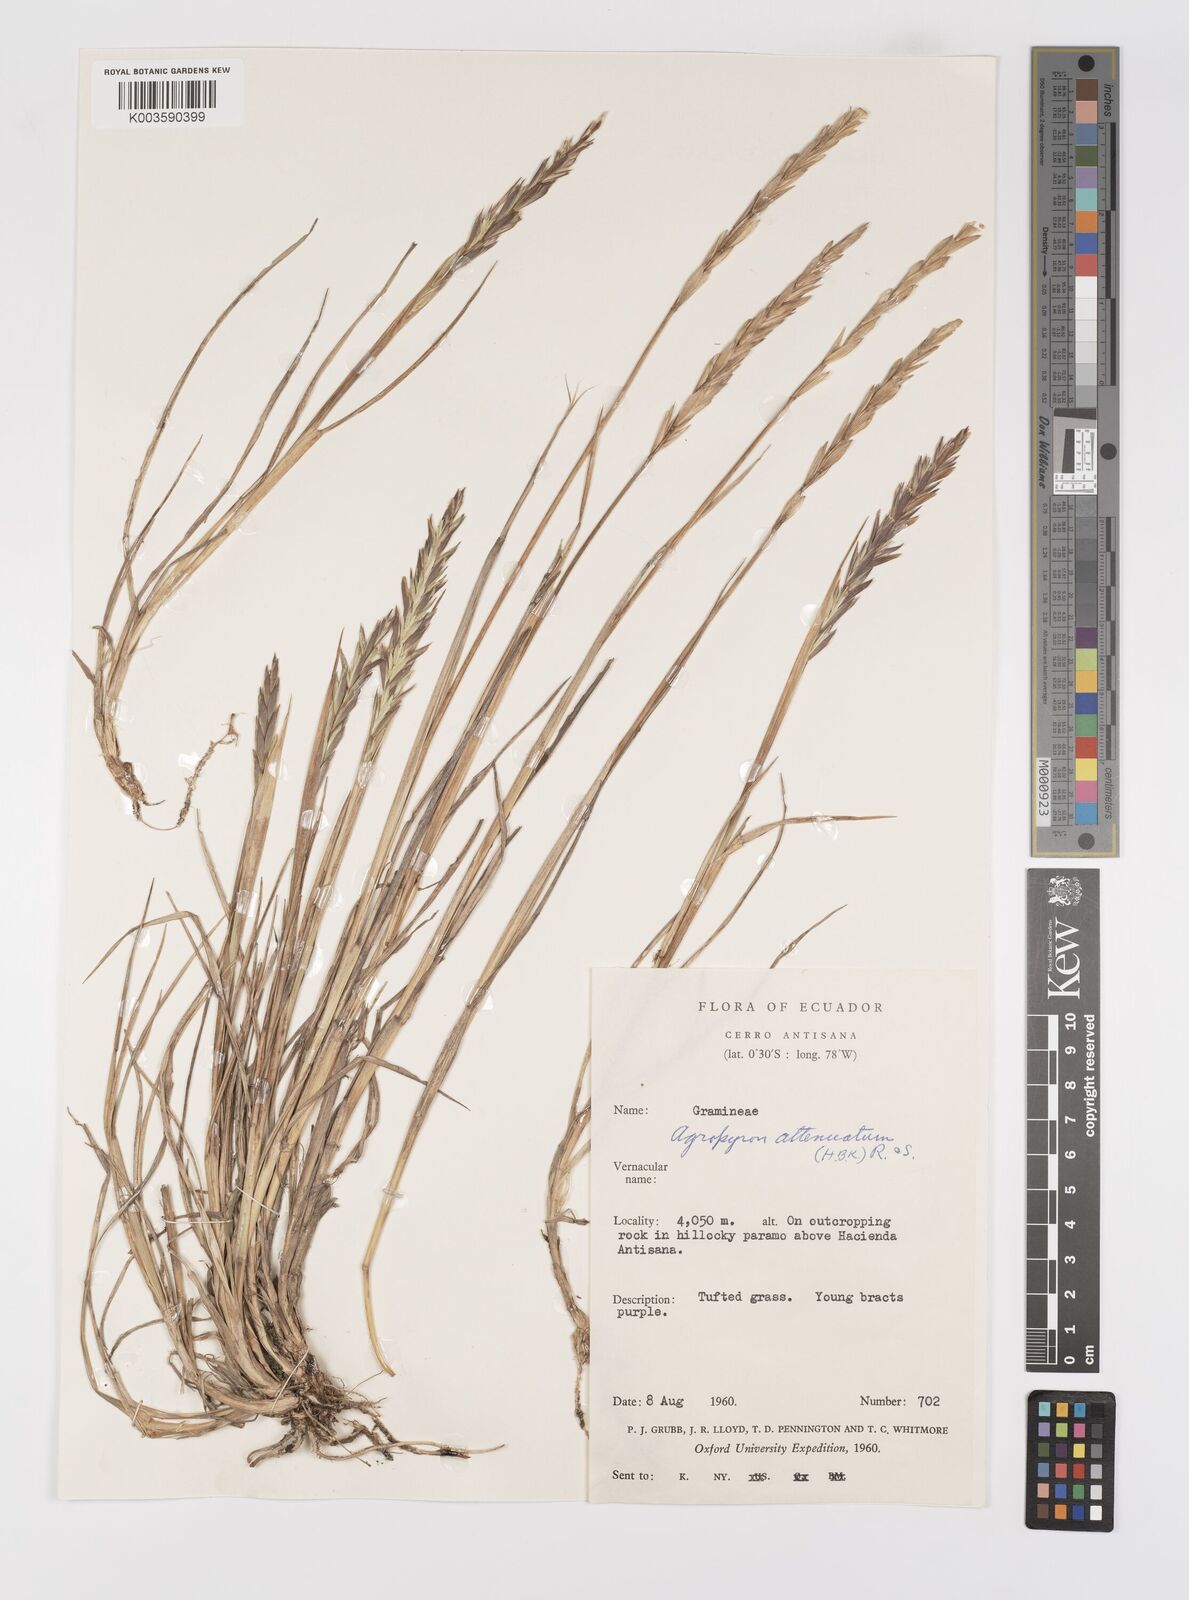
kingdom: Plantae
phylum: Tracheophyta
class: Liliopsida
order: Poales
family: Poaceae
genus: Elymus
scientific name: Elymus cordilleranus
